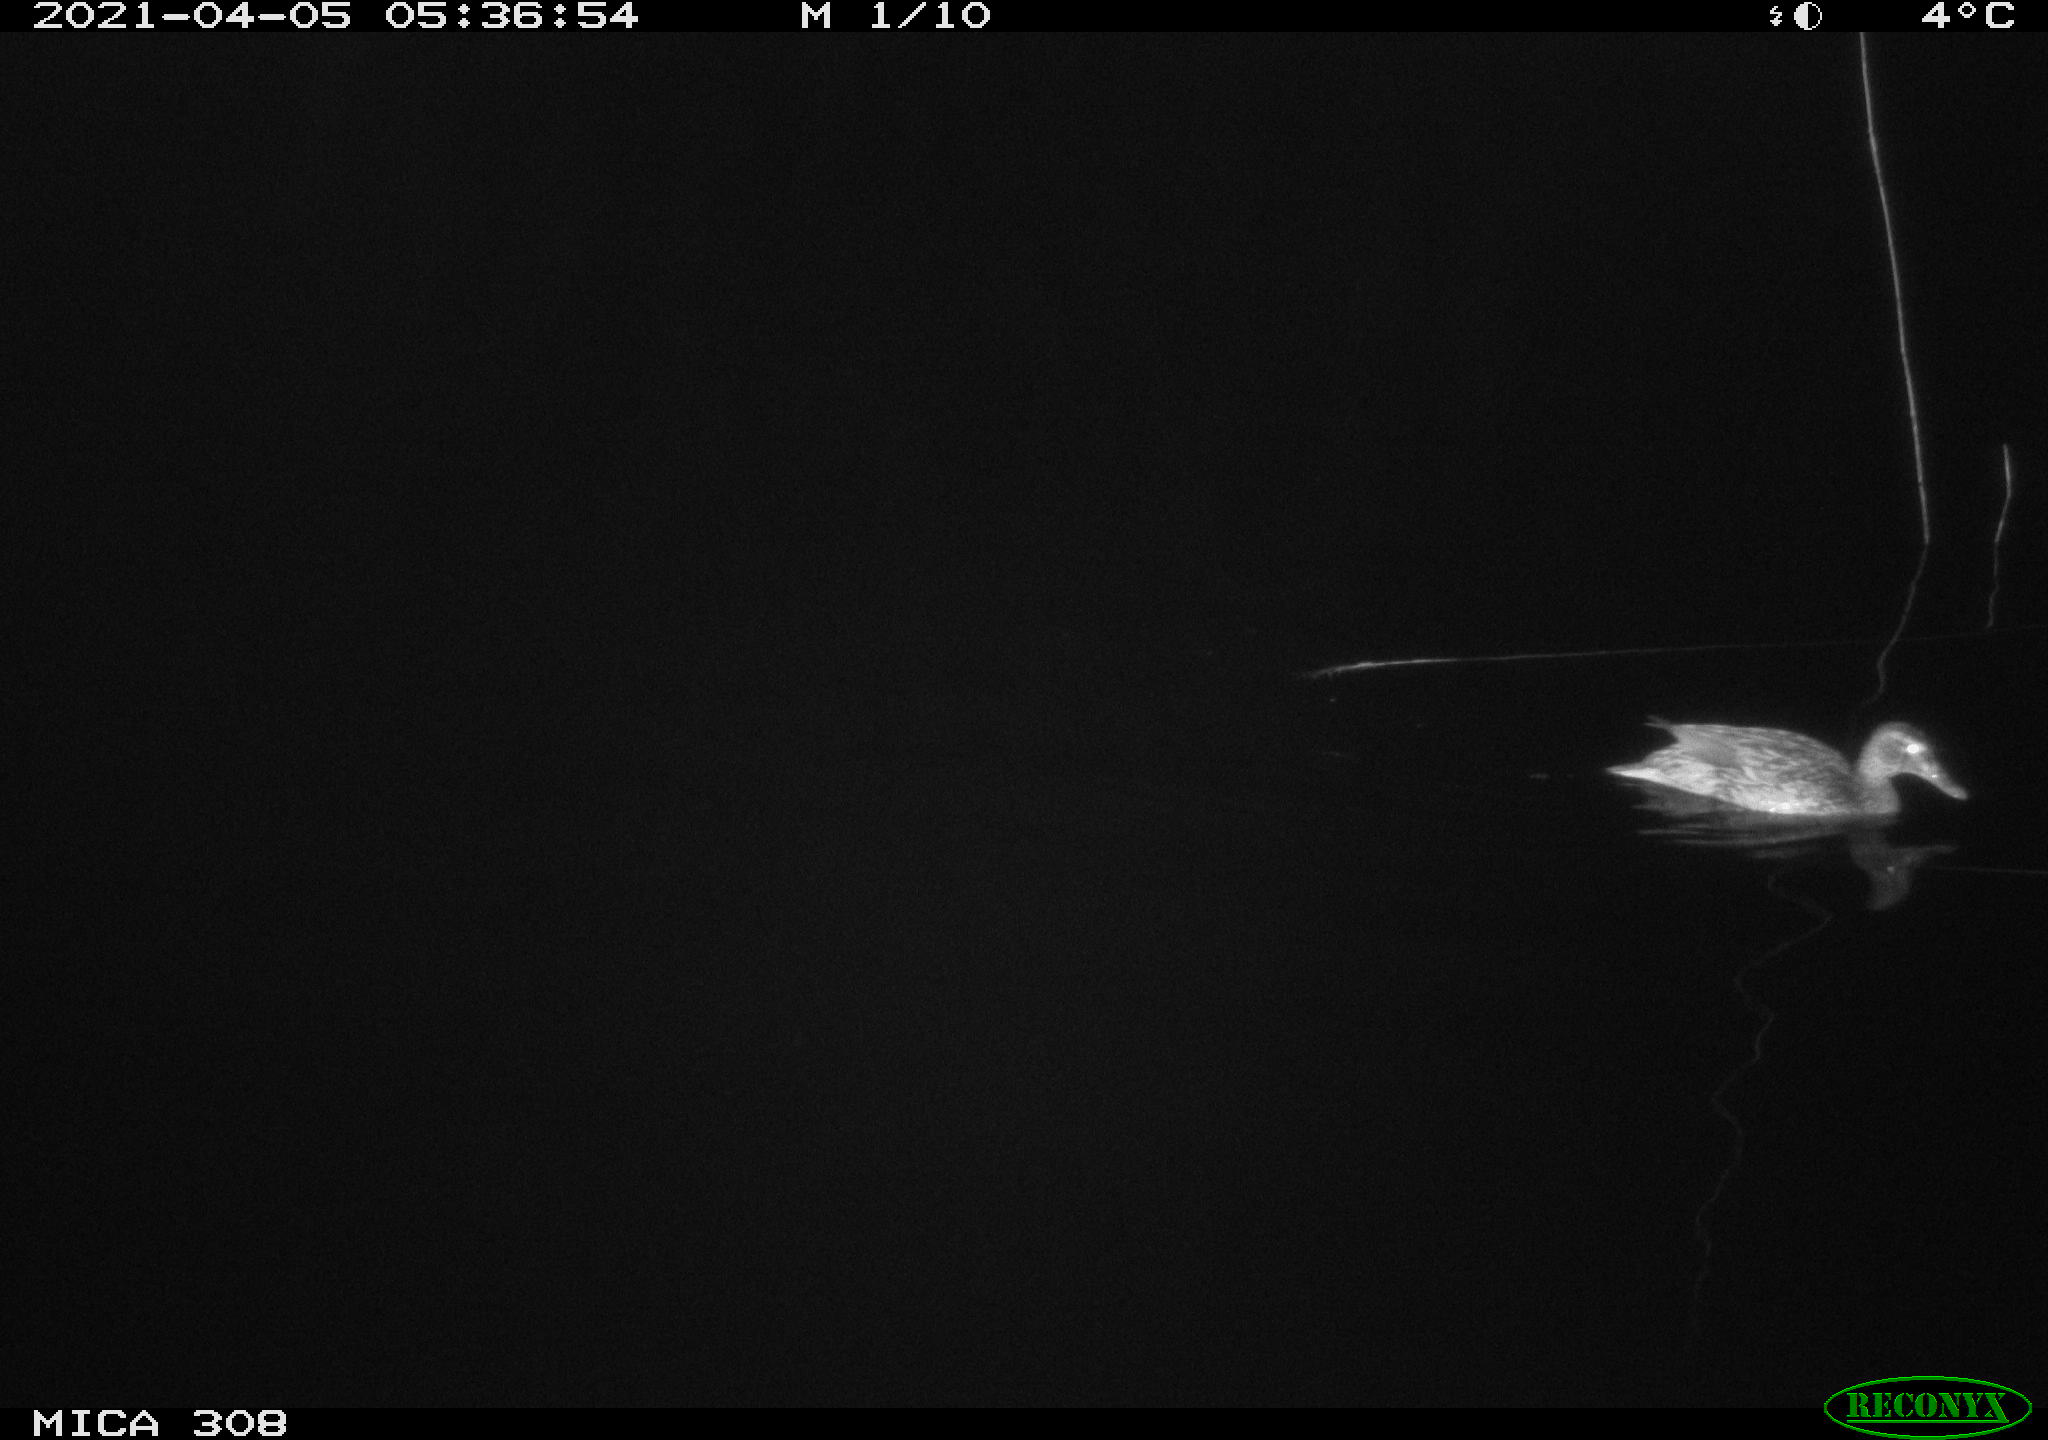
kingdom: Animalia
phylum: Chordata
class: Aves
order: Anseriformes
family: Anatidae
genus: Anas
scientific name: Anas platyrhynchos
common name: Mallard
